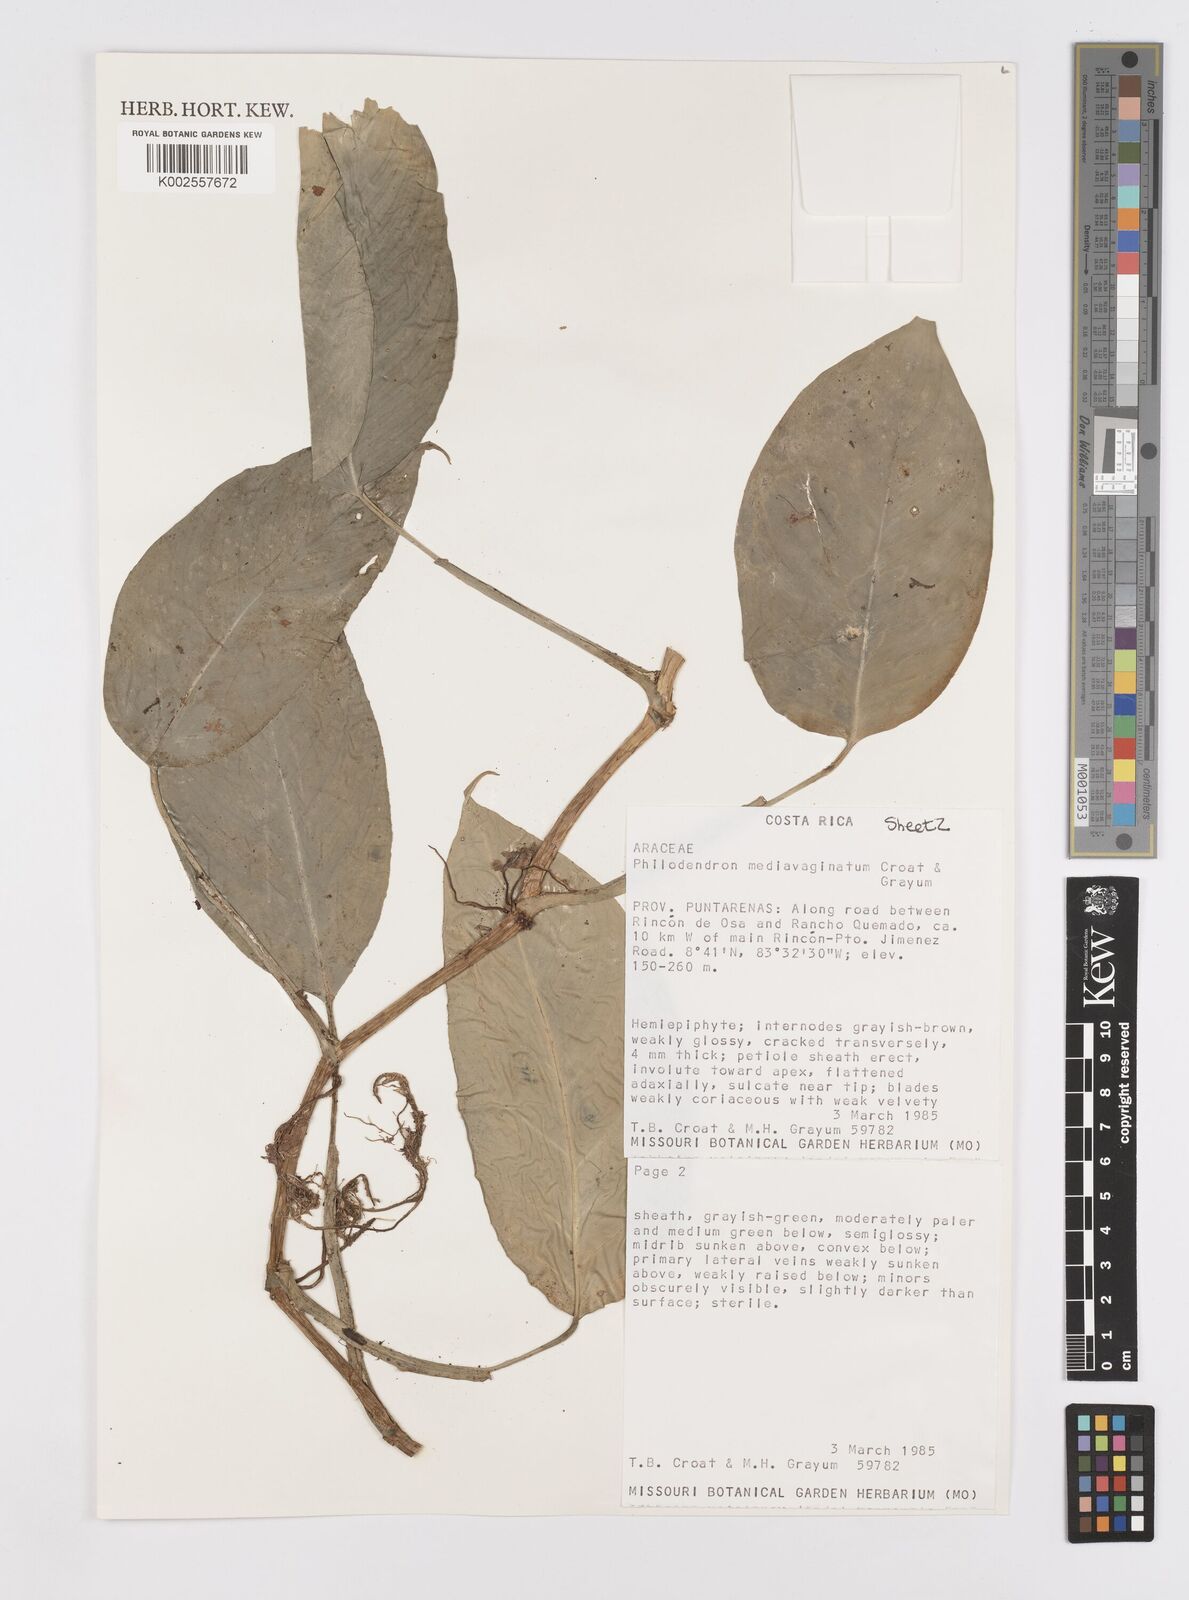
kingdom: Plantae
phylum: Tracheophyta
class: Liliopsida
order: Alismatales
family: Araceae
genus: Philodendron
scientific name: Philodendron
